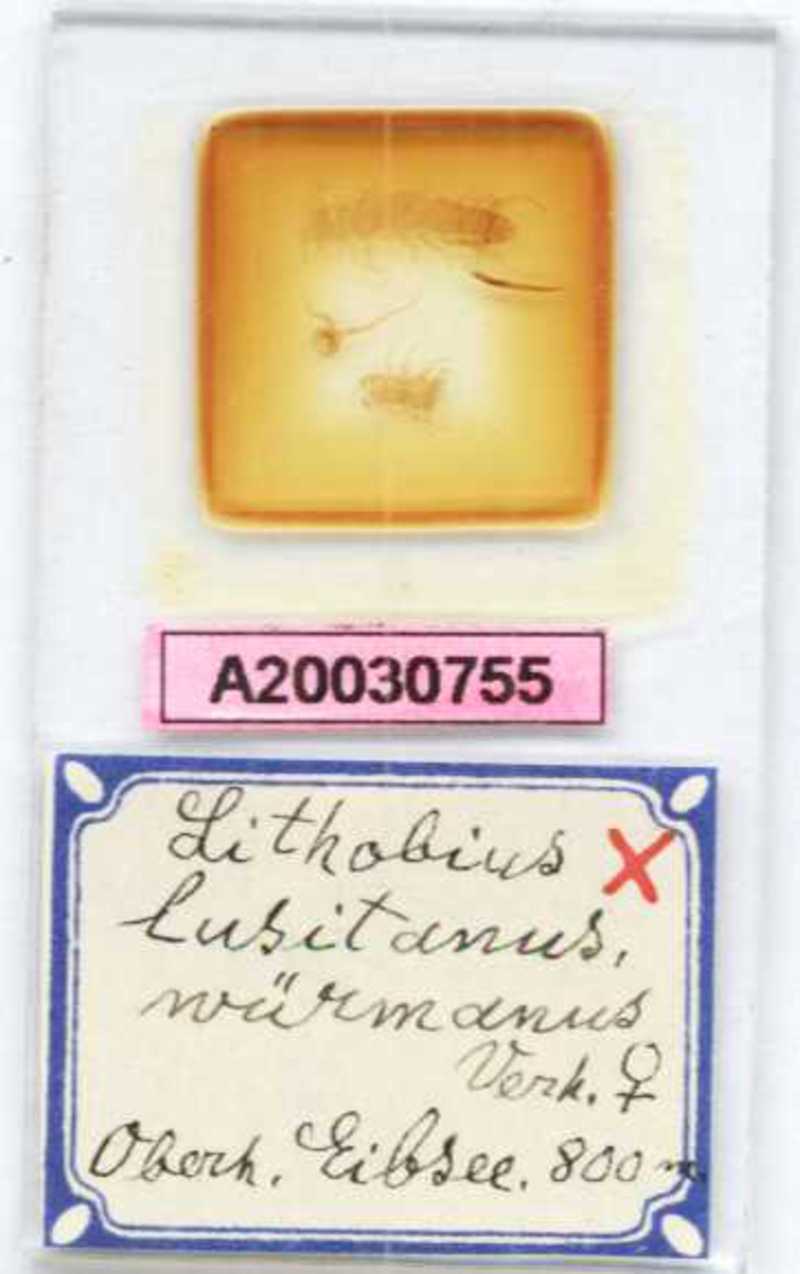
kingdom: Animalia
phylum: Arthropoda
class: Chilopoda
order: Lithobiomorpha
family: Lithobiidae
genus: Lithobius
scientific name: Lithobius borealis
